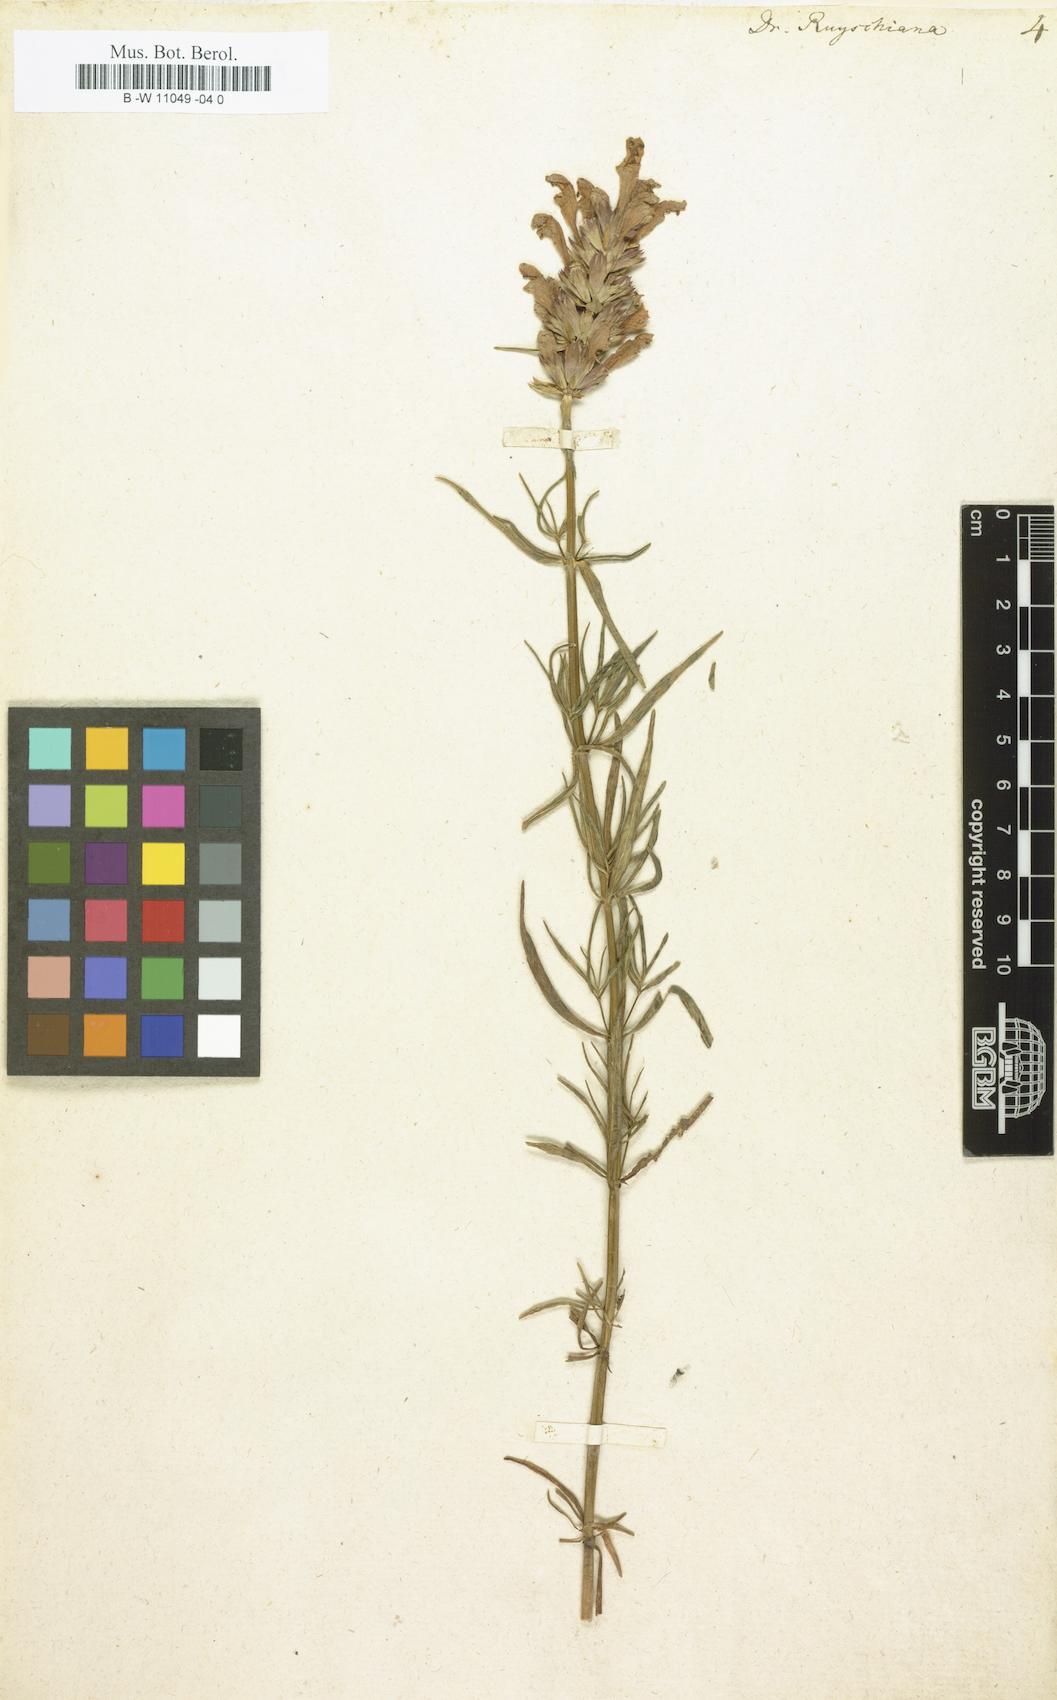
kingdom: Plantae
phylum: Tracheophyta
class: Magnoliopsida
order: Lamiales
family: Lamiaceae
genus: Dracocephalum
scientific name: Dracocephalum ruyschiana
